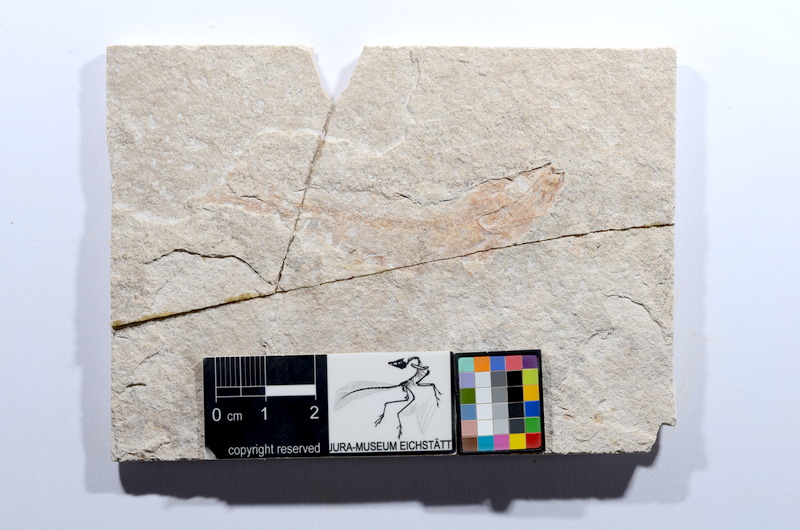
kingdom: Animalia
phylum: Chordata
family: Ascalaboidae
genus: Tharsis
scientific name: Tharsis dubius
